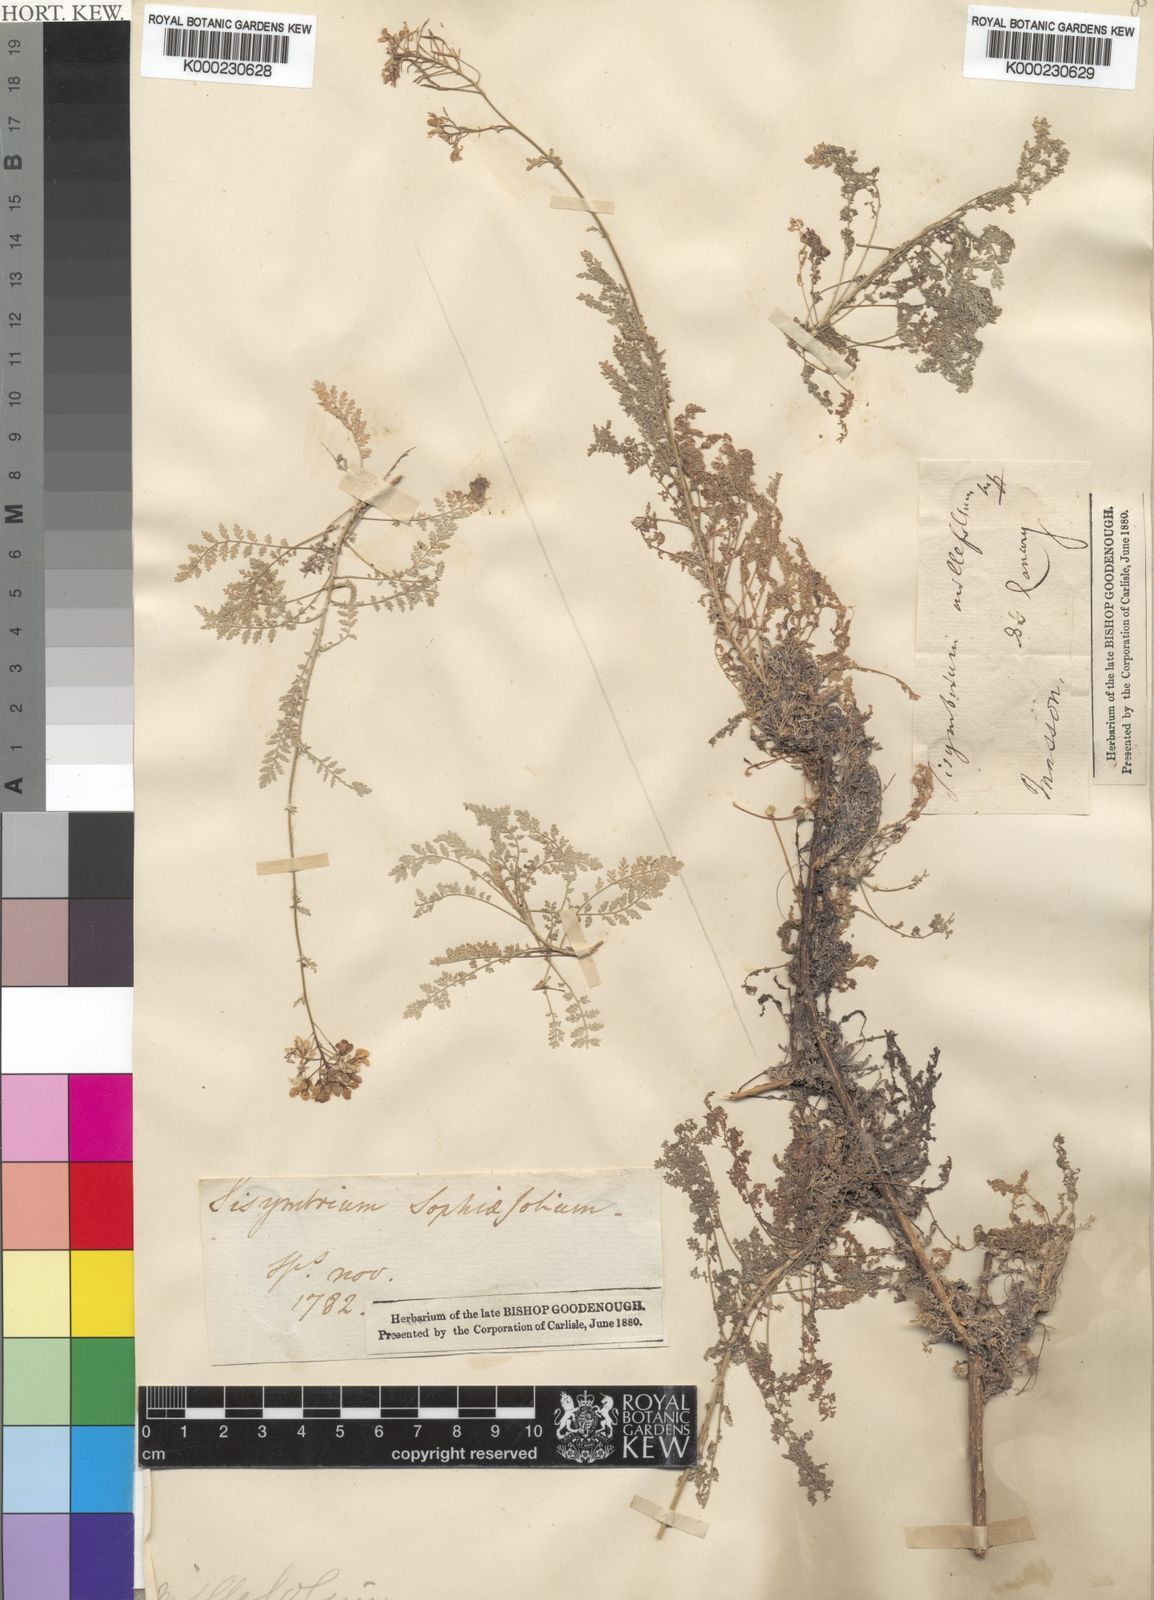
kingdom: Plantae
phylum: Tracheophyta
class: Magnoliopsida
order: Brassicales
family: Brassicaceae
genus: Hesperis
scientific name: Hesperis millefolia
